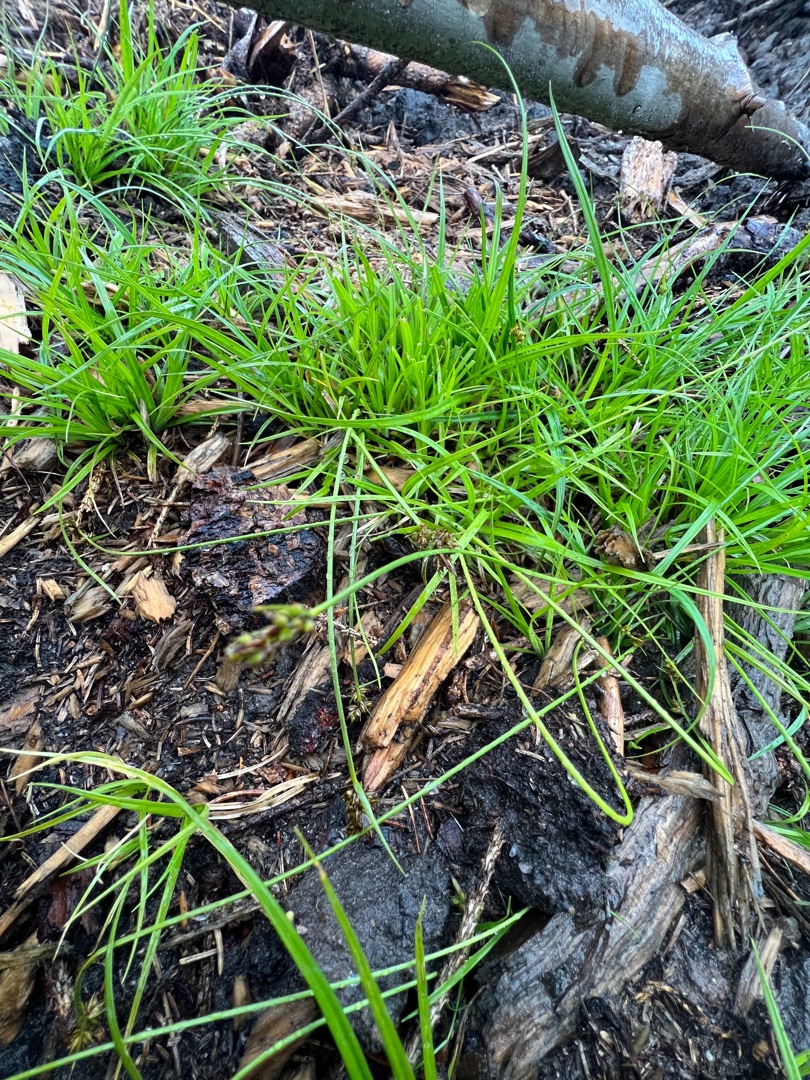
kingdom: Plantae
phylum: Tracheophyta
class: Liliopsida
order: Poales
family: Cyperaceae
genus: Carex
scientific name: Carex pilulifera
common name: Pille-star
